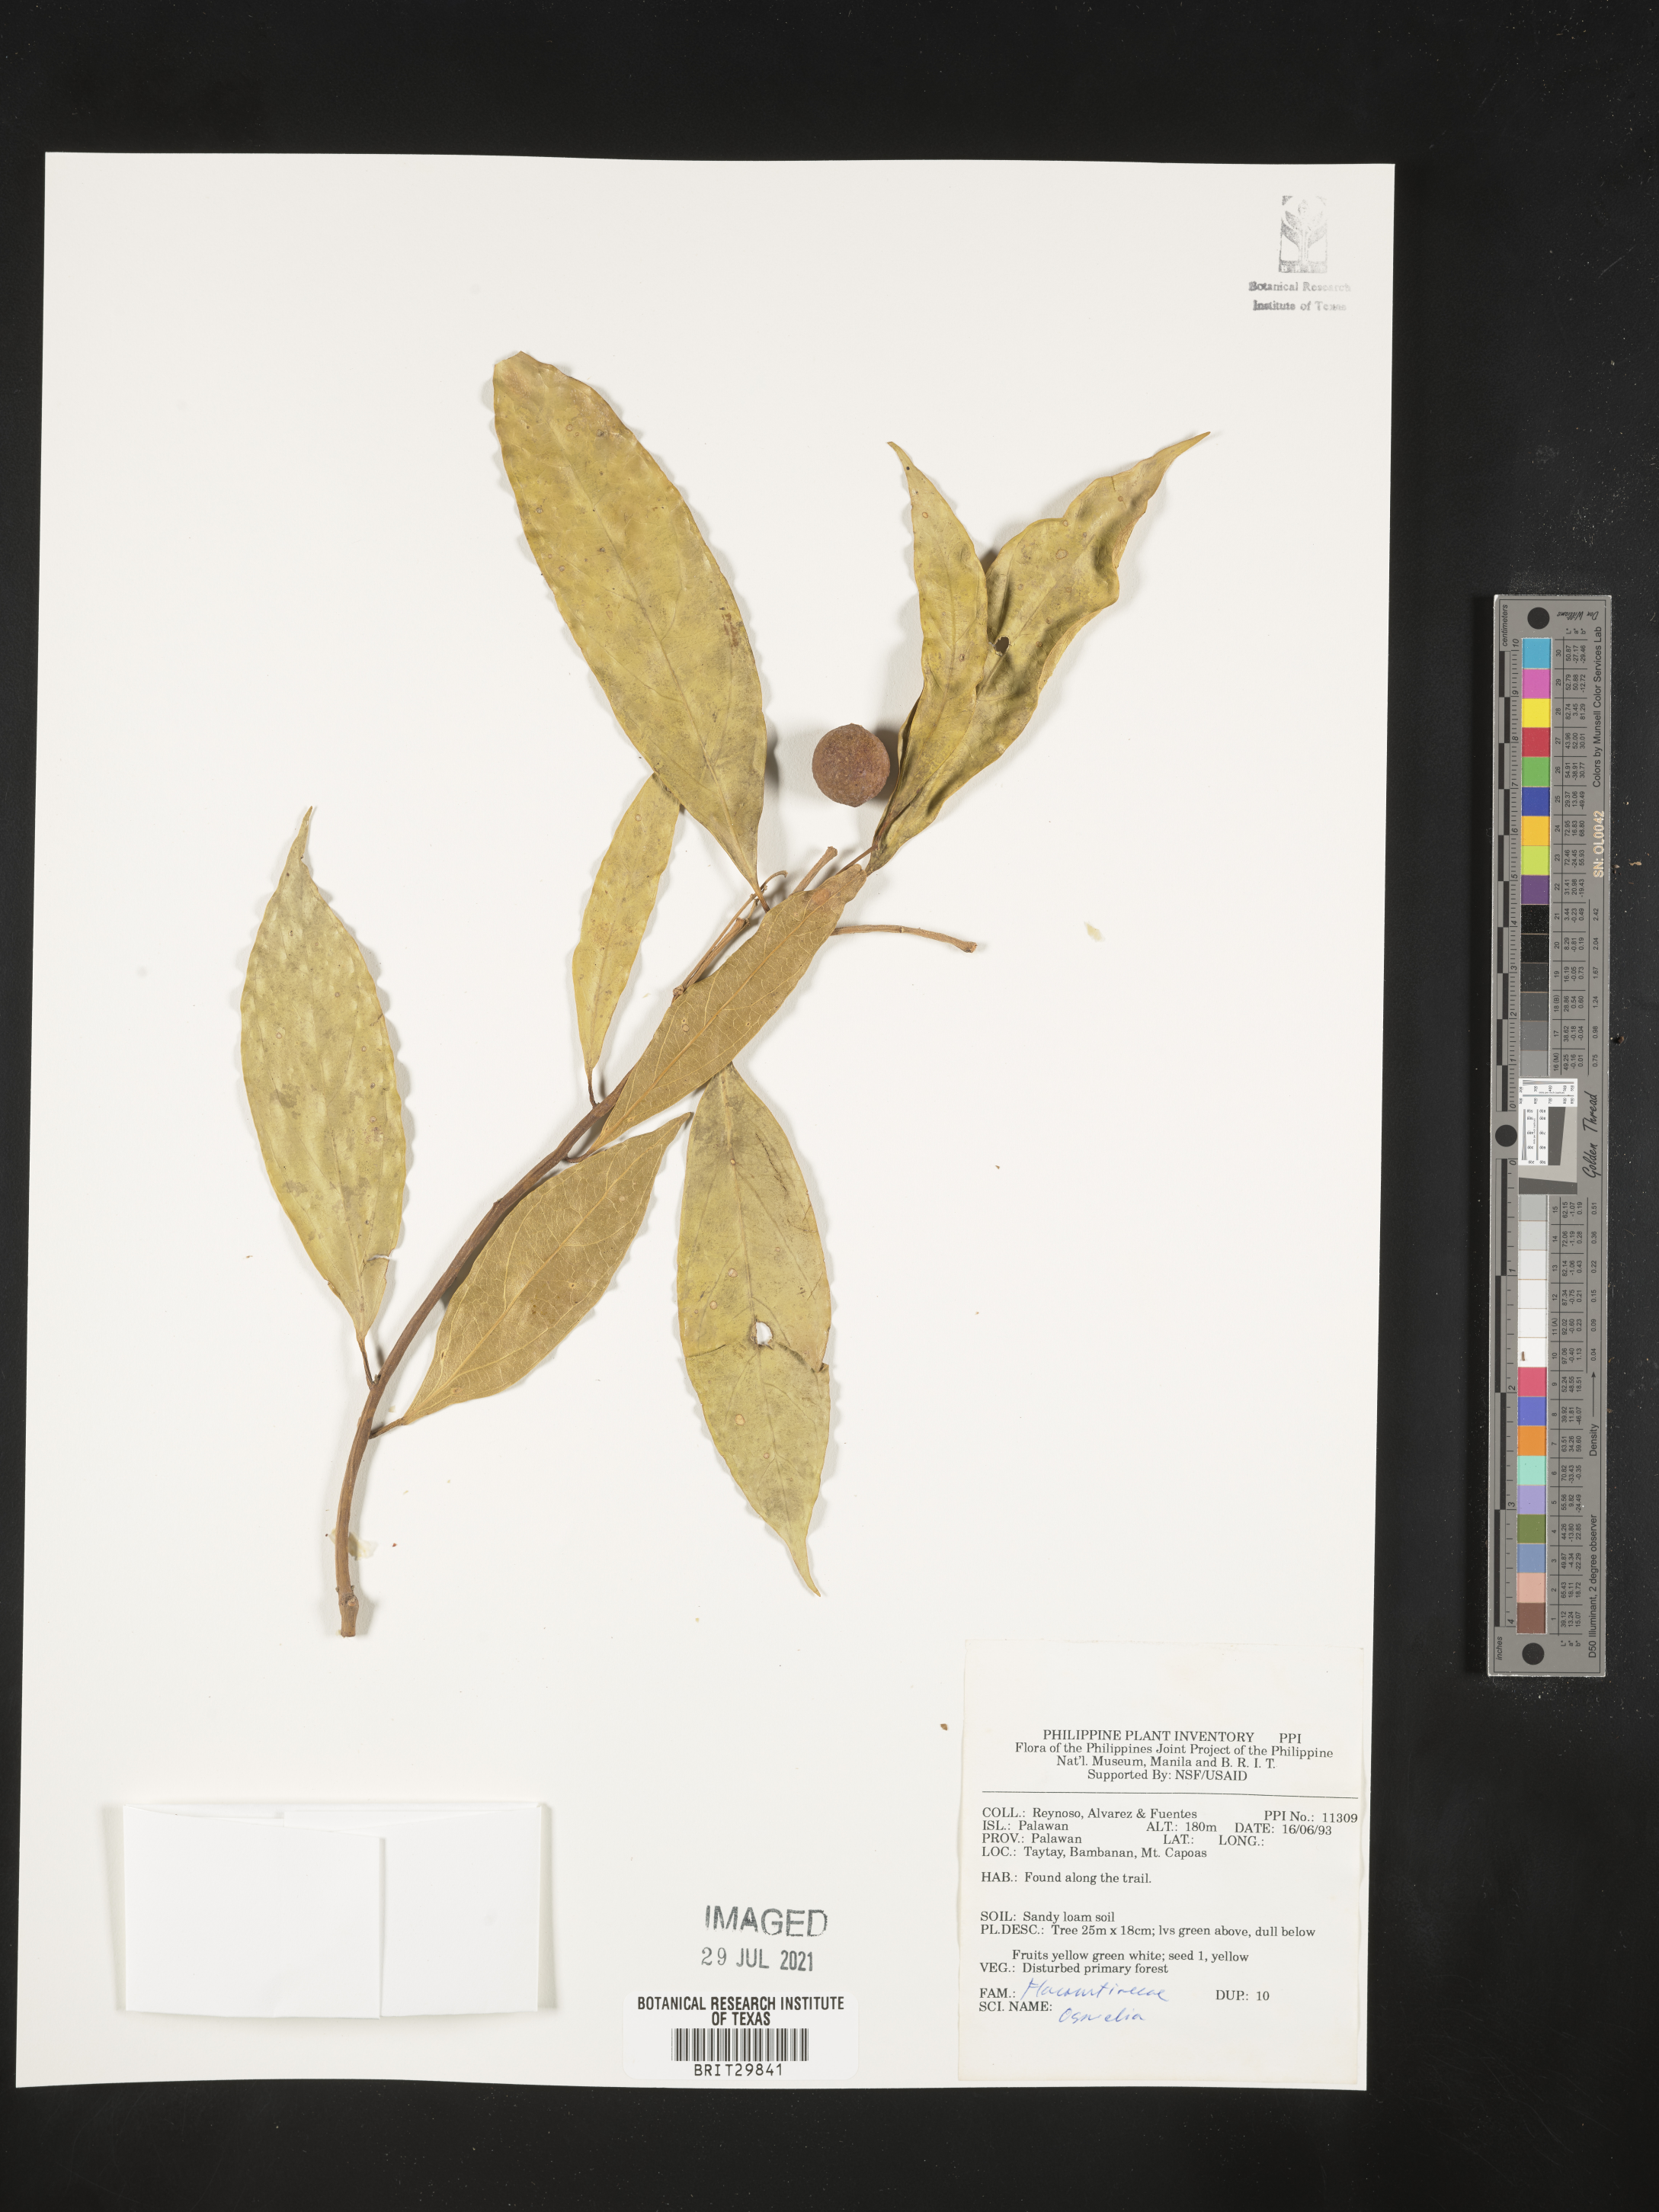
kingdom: Plantae
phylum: Tracheophyta
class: Magnoliopsida
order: Malpighiales
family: Salicaceae
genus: Osmelia
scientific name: Osmelia
